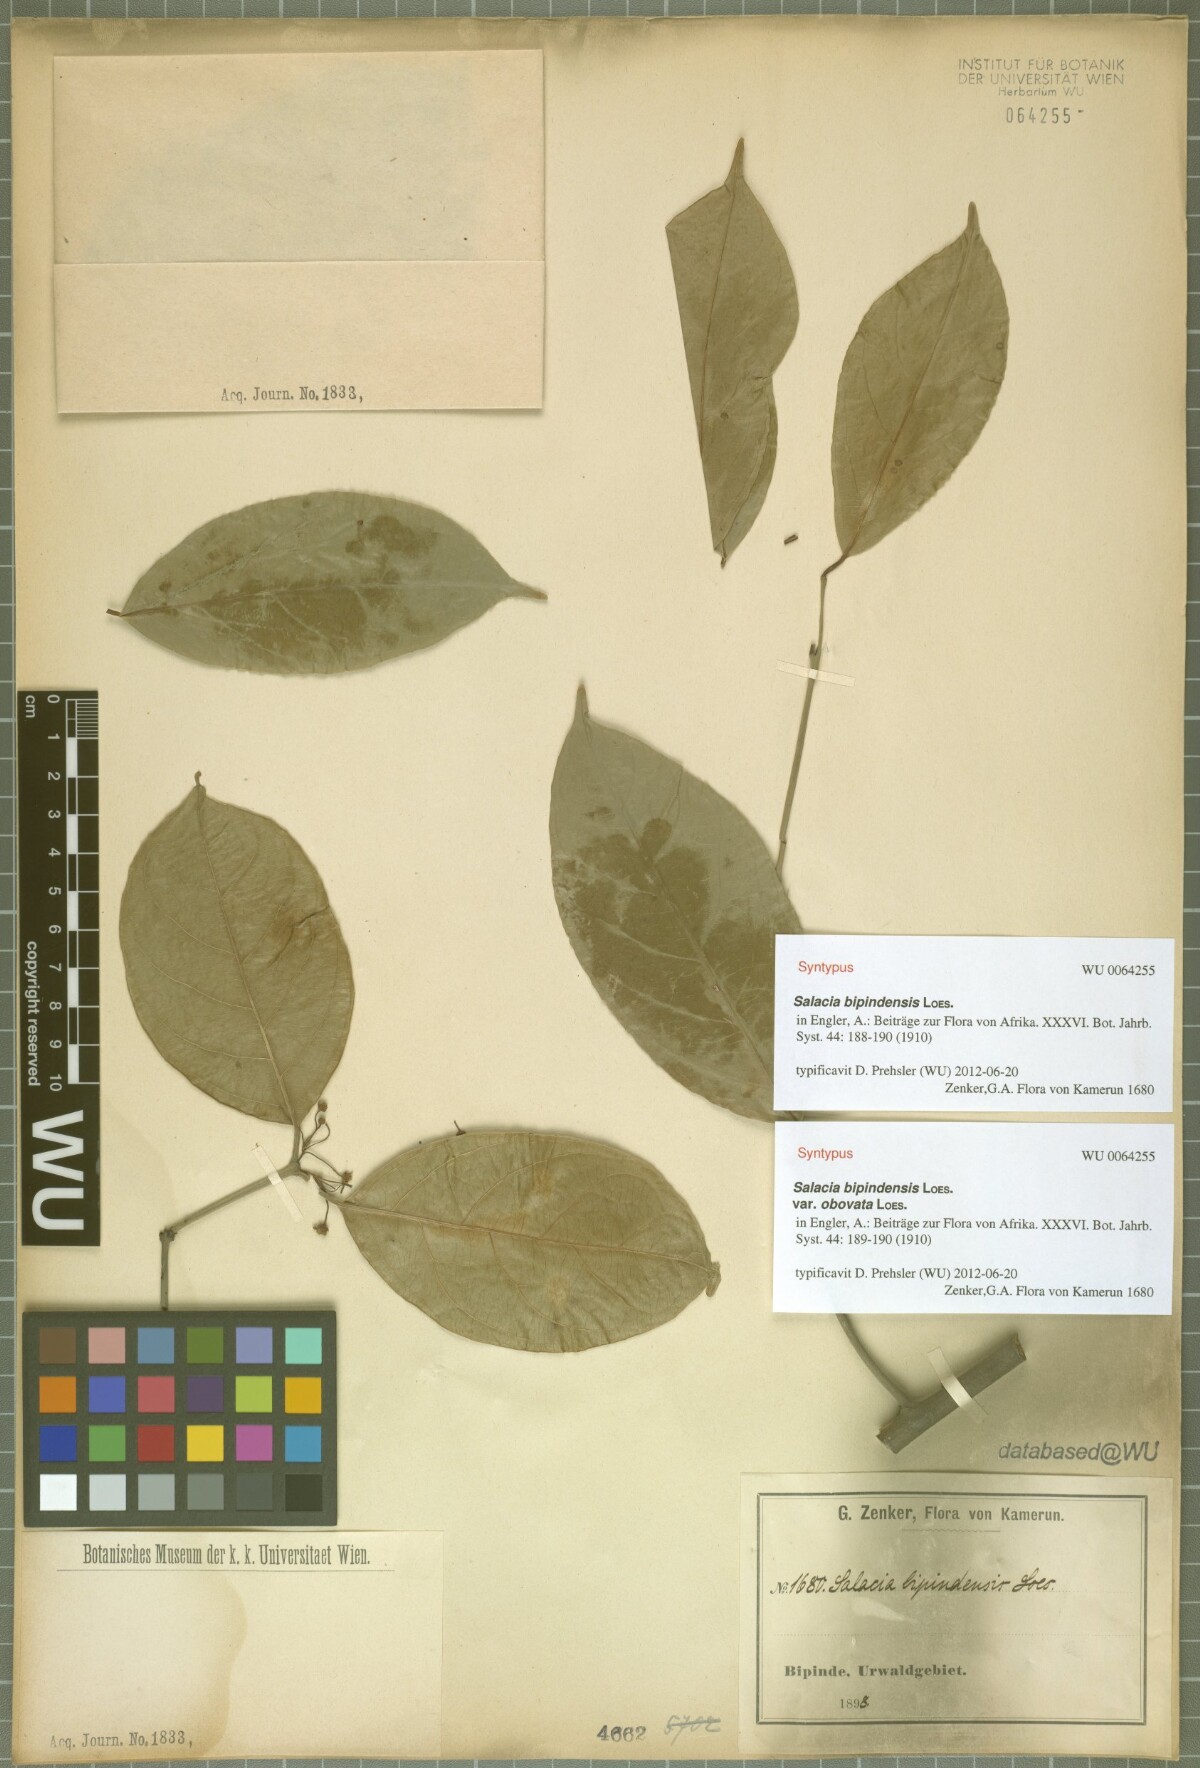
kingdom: Plantae
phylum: Tracheophyta
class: Magnoliopsida
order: Celastrales
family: Celastraceae
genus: Salacia
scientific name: Salacia nitida
